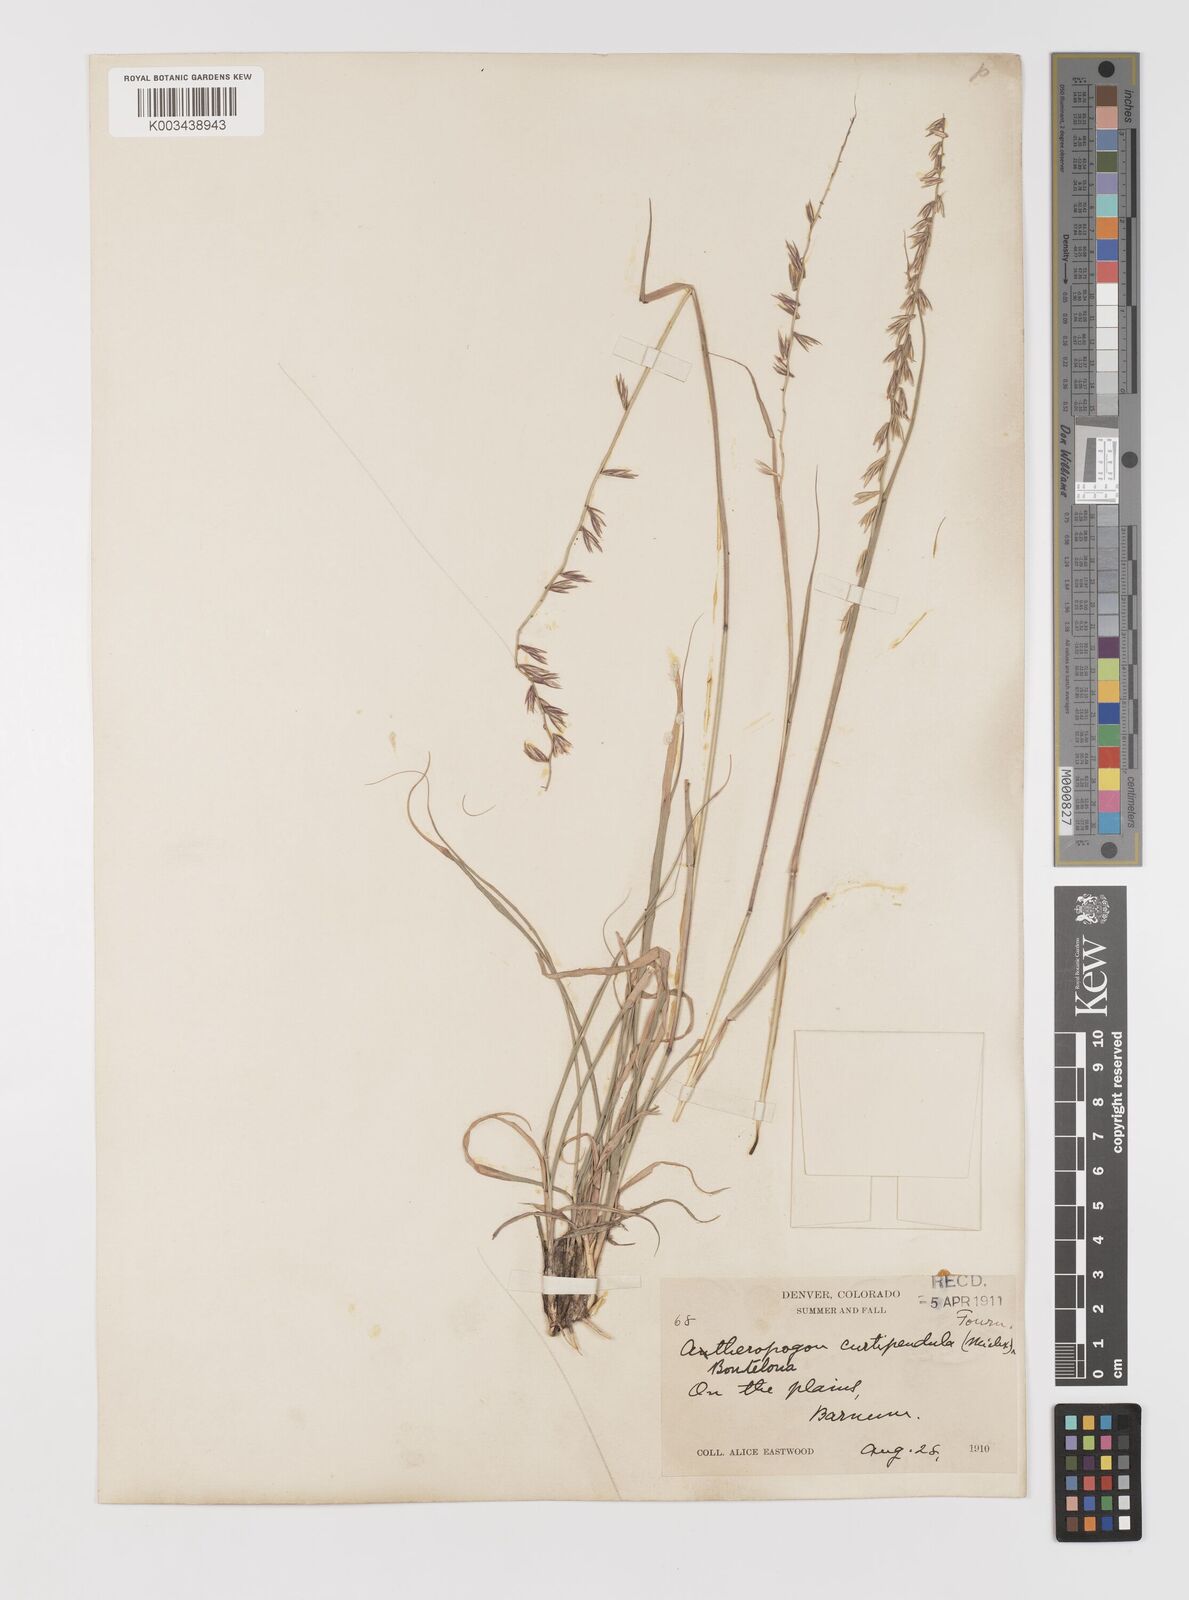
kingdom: Plantae
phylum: Tracheophyta
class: Liliopsida
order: Poales
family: Poaceae
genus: Bouteloua
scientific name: Bouteloua curtipendula
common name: Side-oats grama
